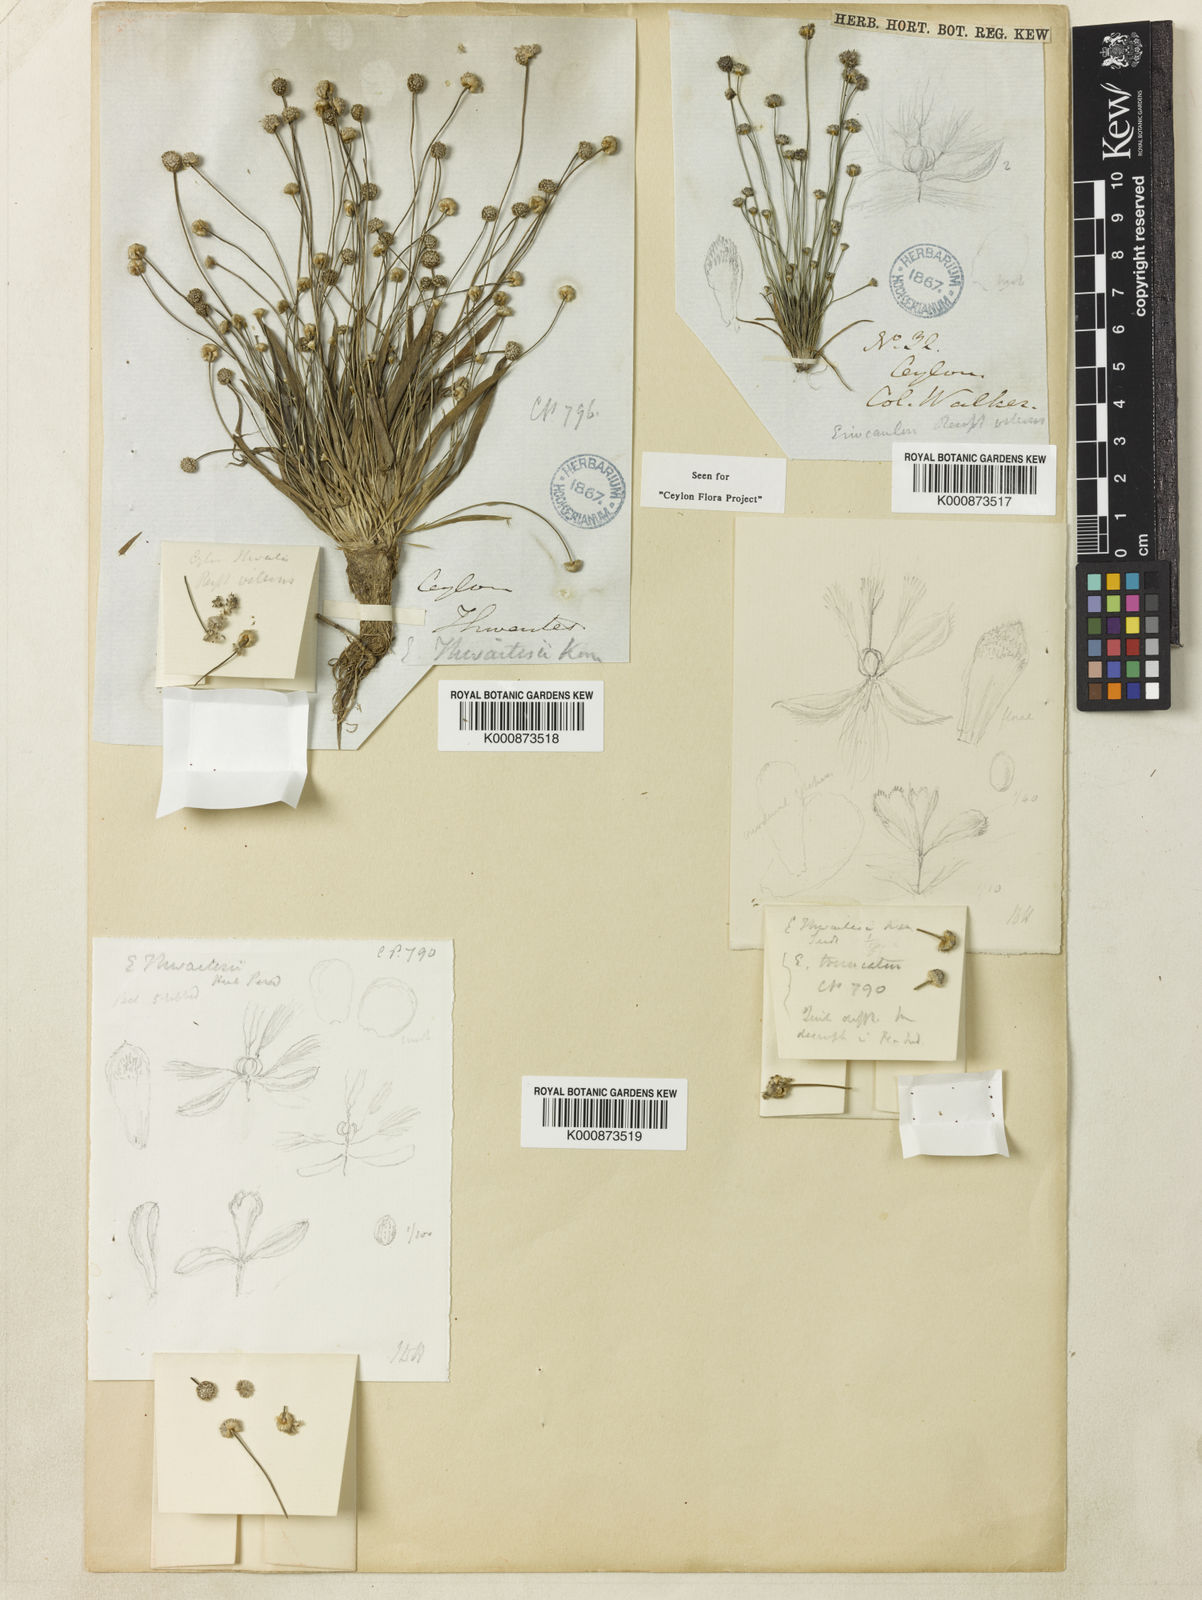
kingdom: Plantae
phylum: Tracheophyta
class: Liliopsida
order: Poales
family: Eriocaulaceae
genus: Eriocaulon
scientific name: Eriocaulon
